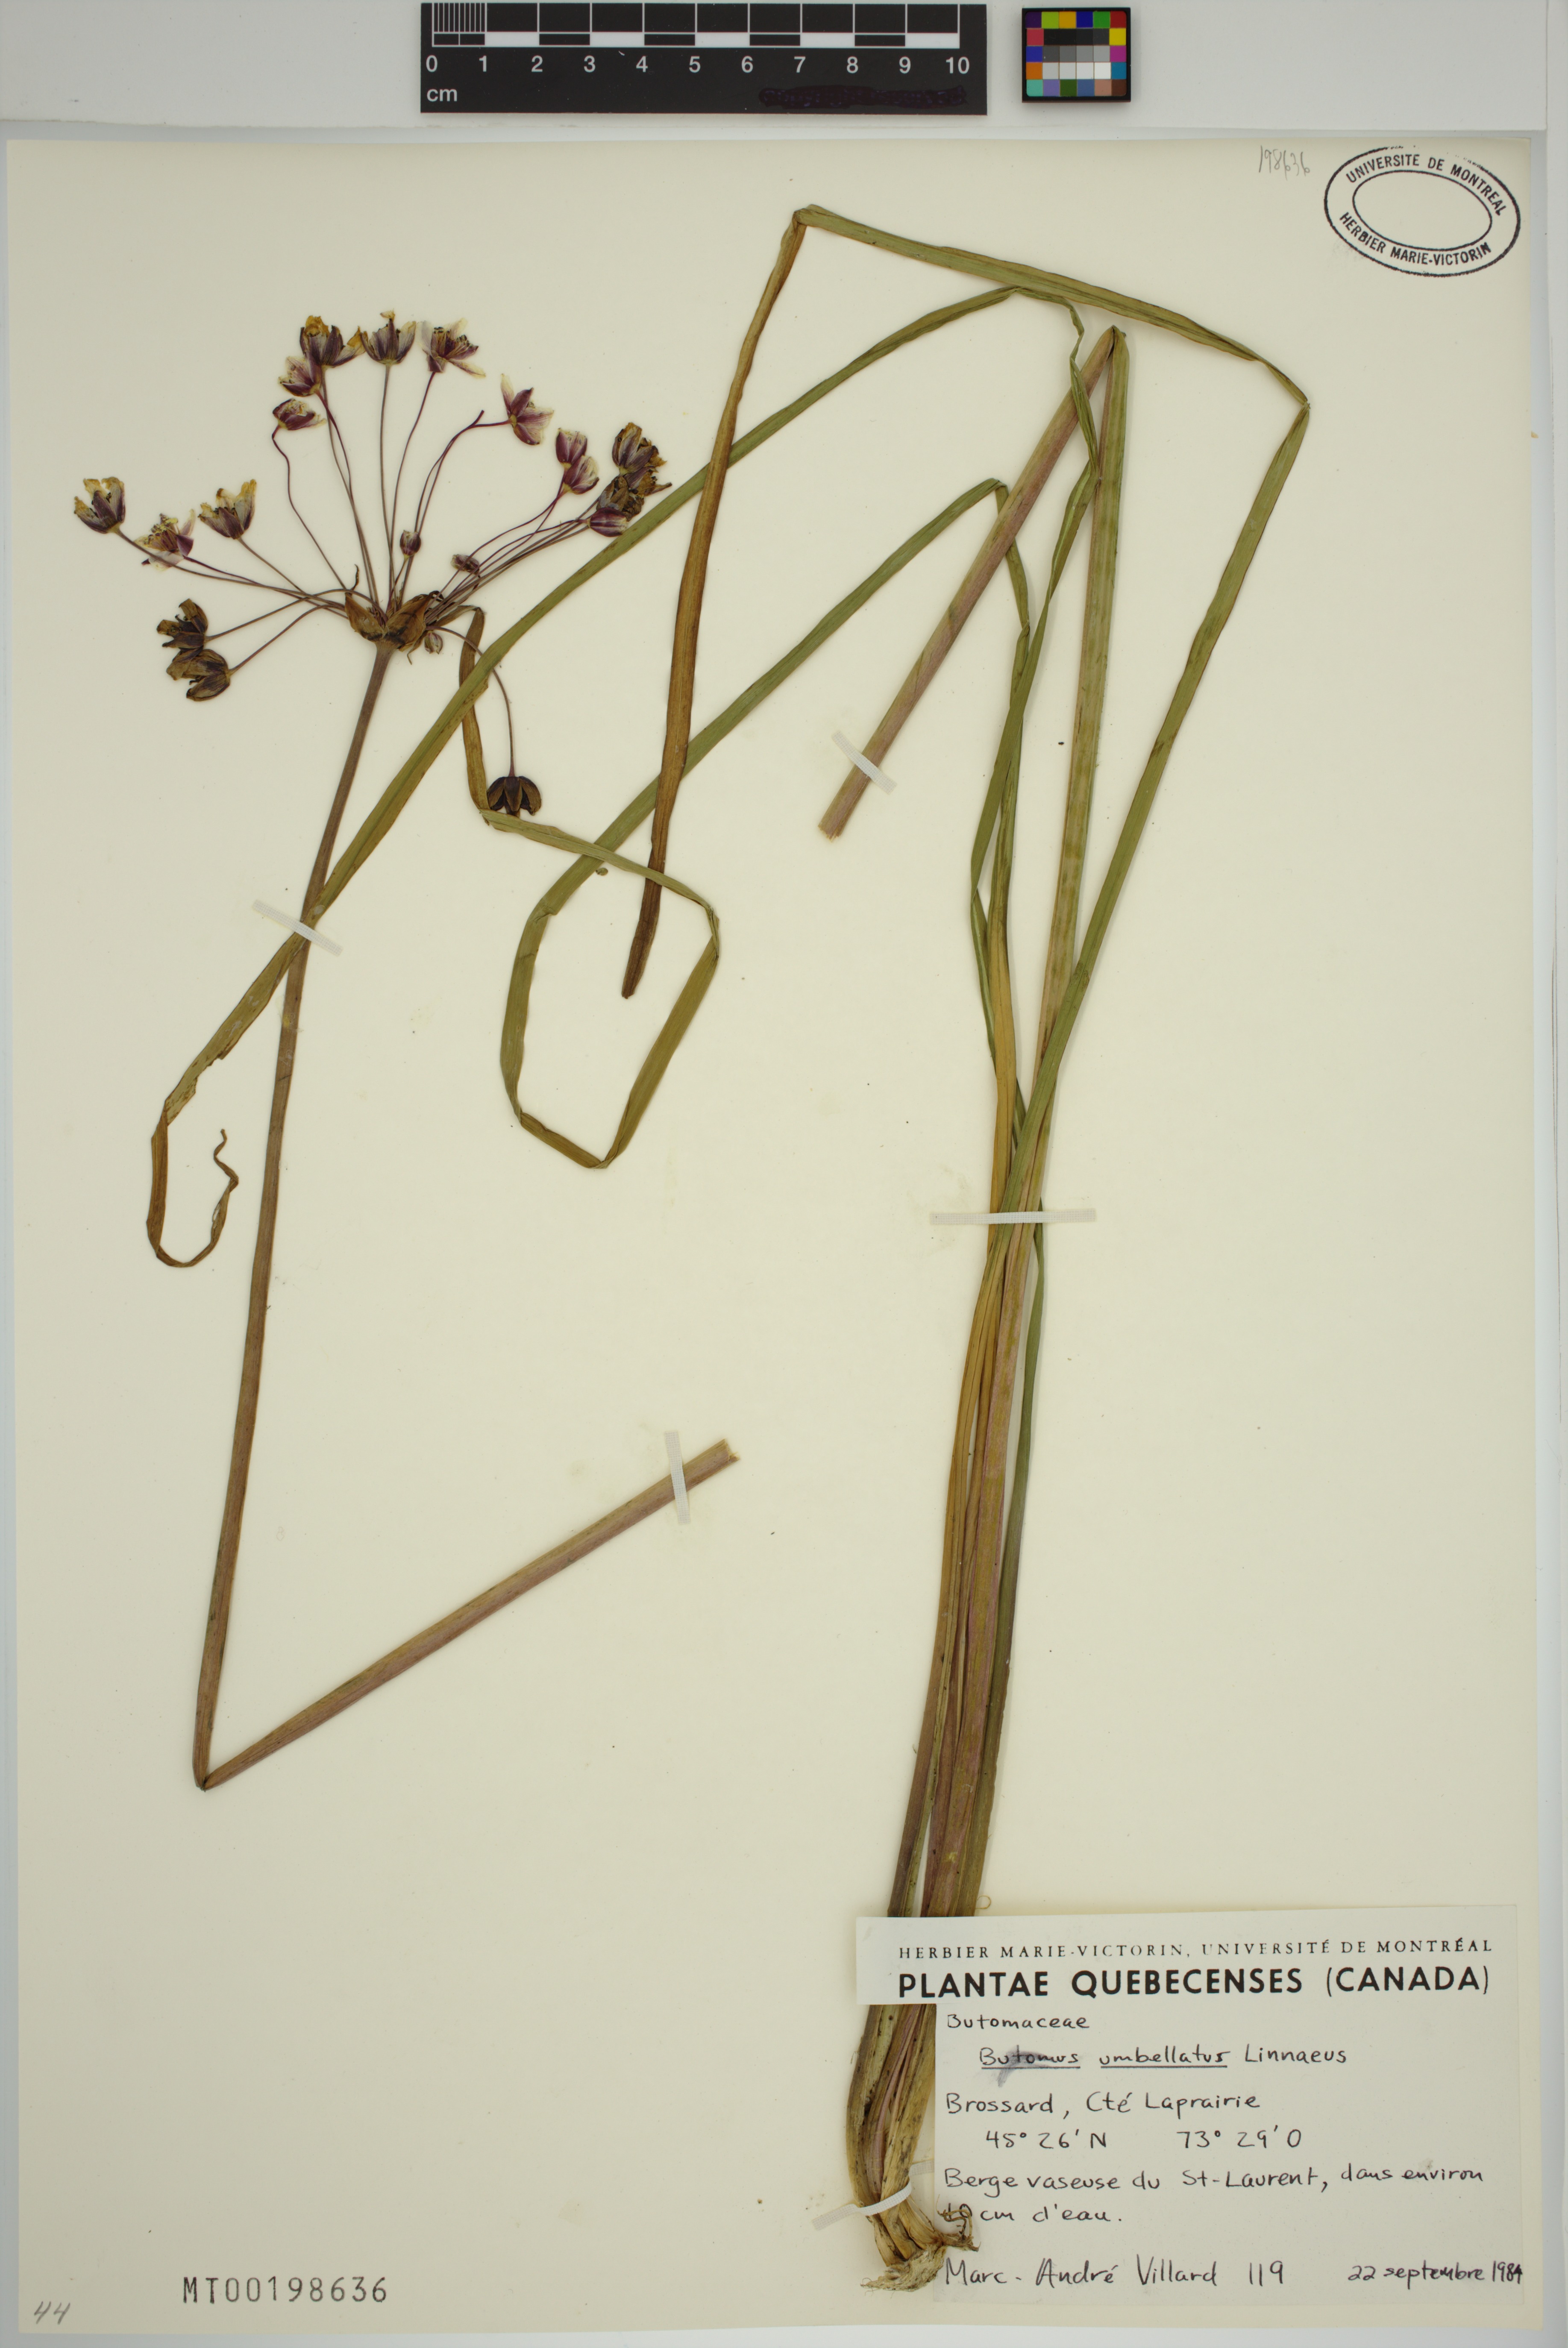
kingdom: Plantae
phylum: Tracheophyta
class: Liliopsida
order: Alismatales
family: Butomaceae
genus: Butomus
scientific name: Butomus umbellatus
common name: Flowering-rush
